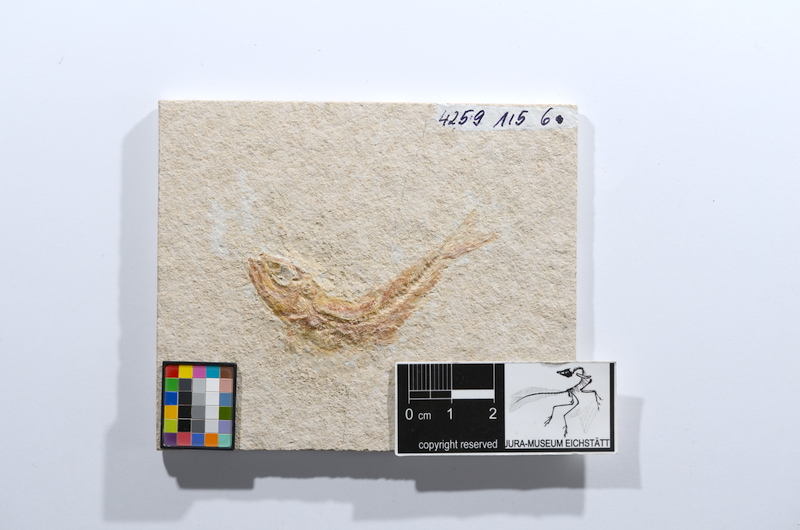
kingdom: Animalia
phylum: Chordata
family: Ascalaboidae
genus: Tharsis
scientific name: Tharsis dubius
